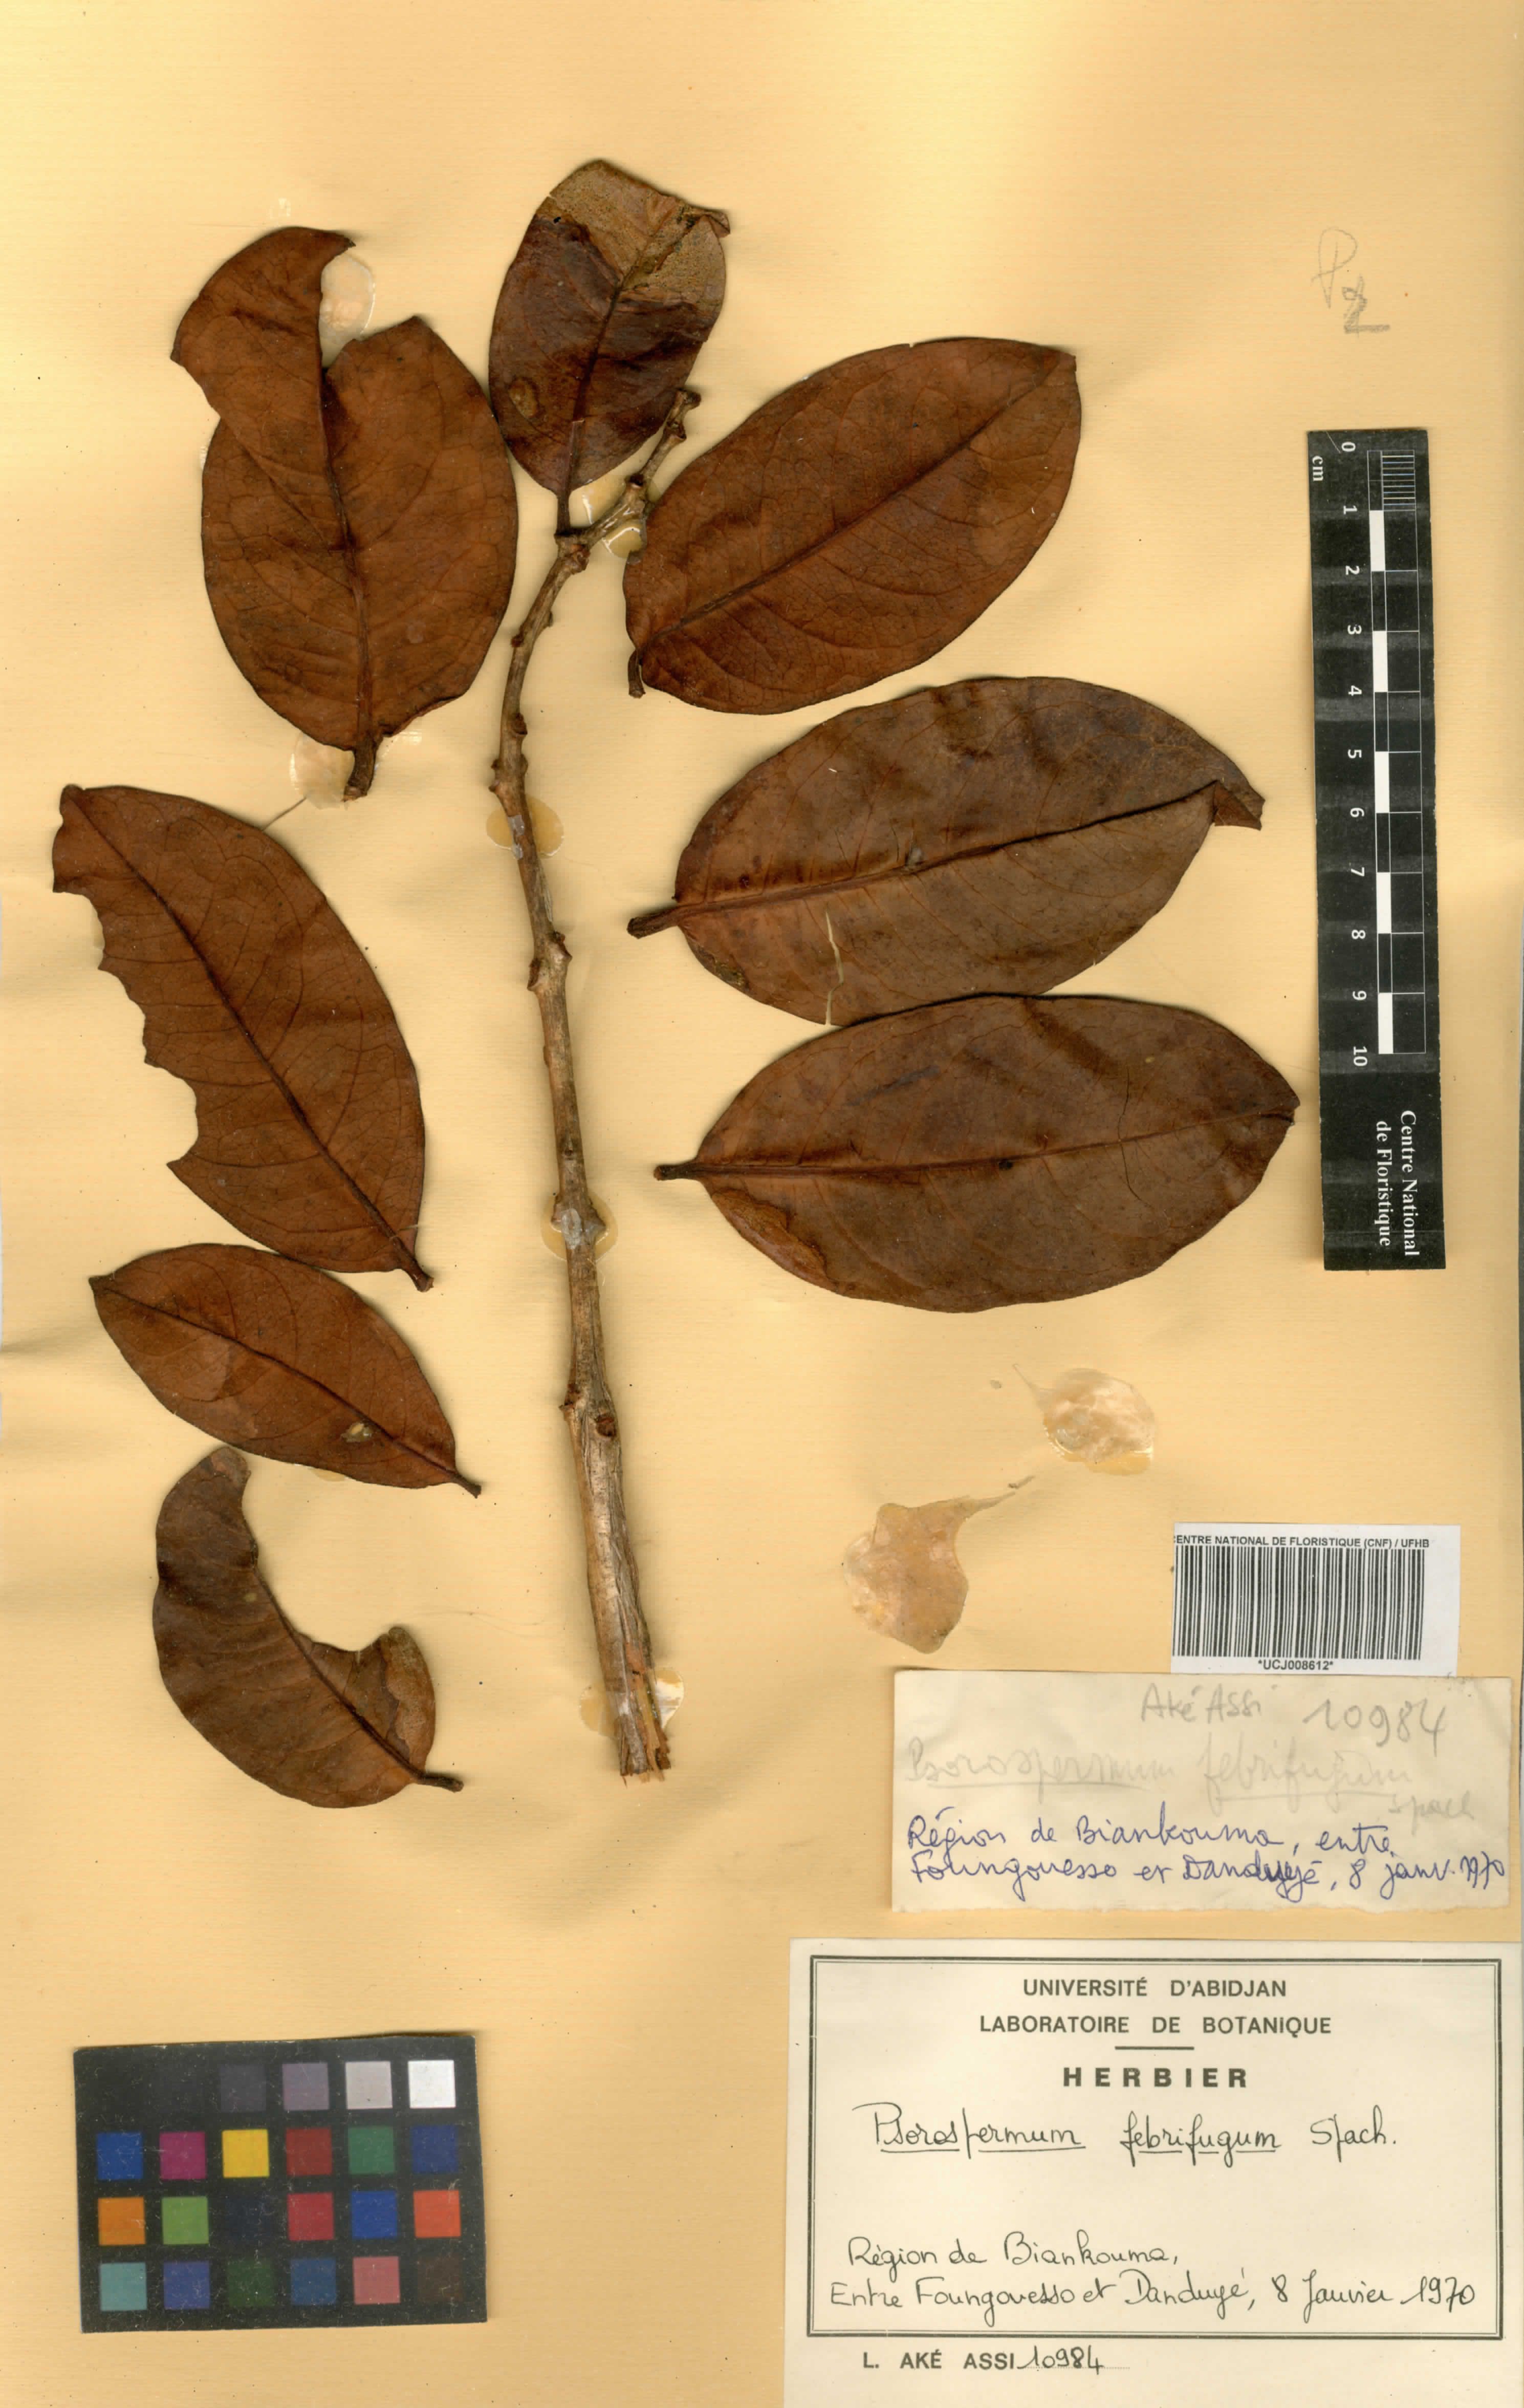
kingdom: Plantae
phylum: Tracheophyta
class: Magnoliopsida
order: Malpighiales
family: Hypericaceae
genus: Psorospermum
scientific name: Psorospermum febrifugum
